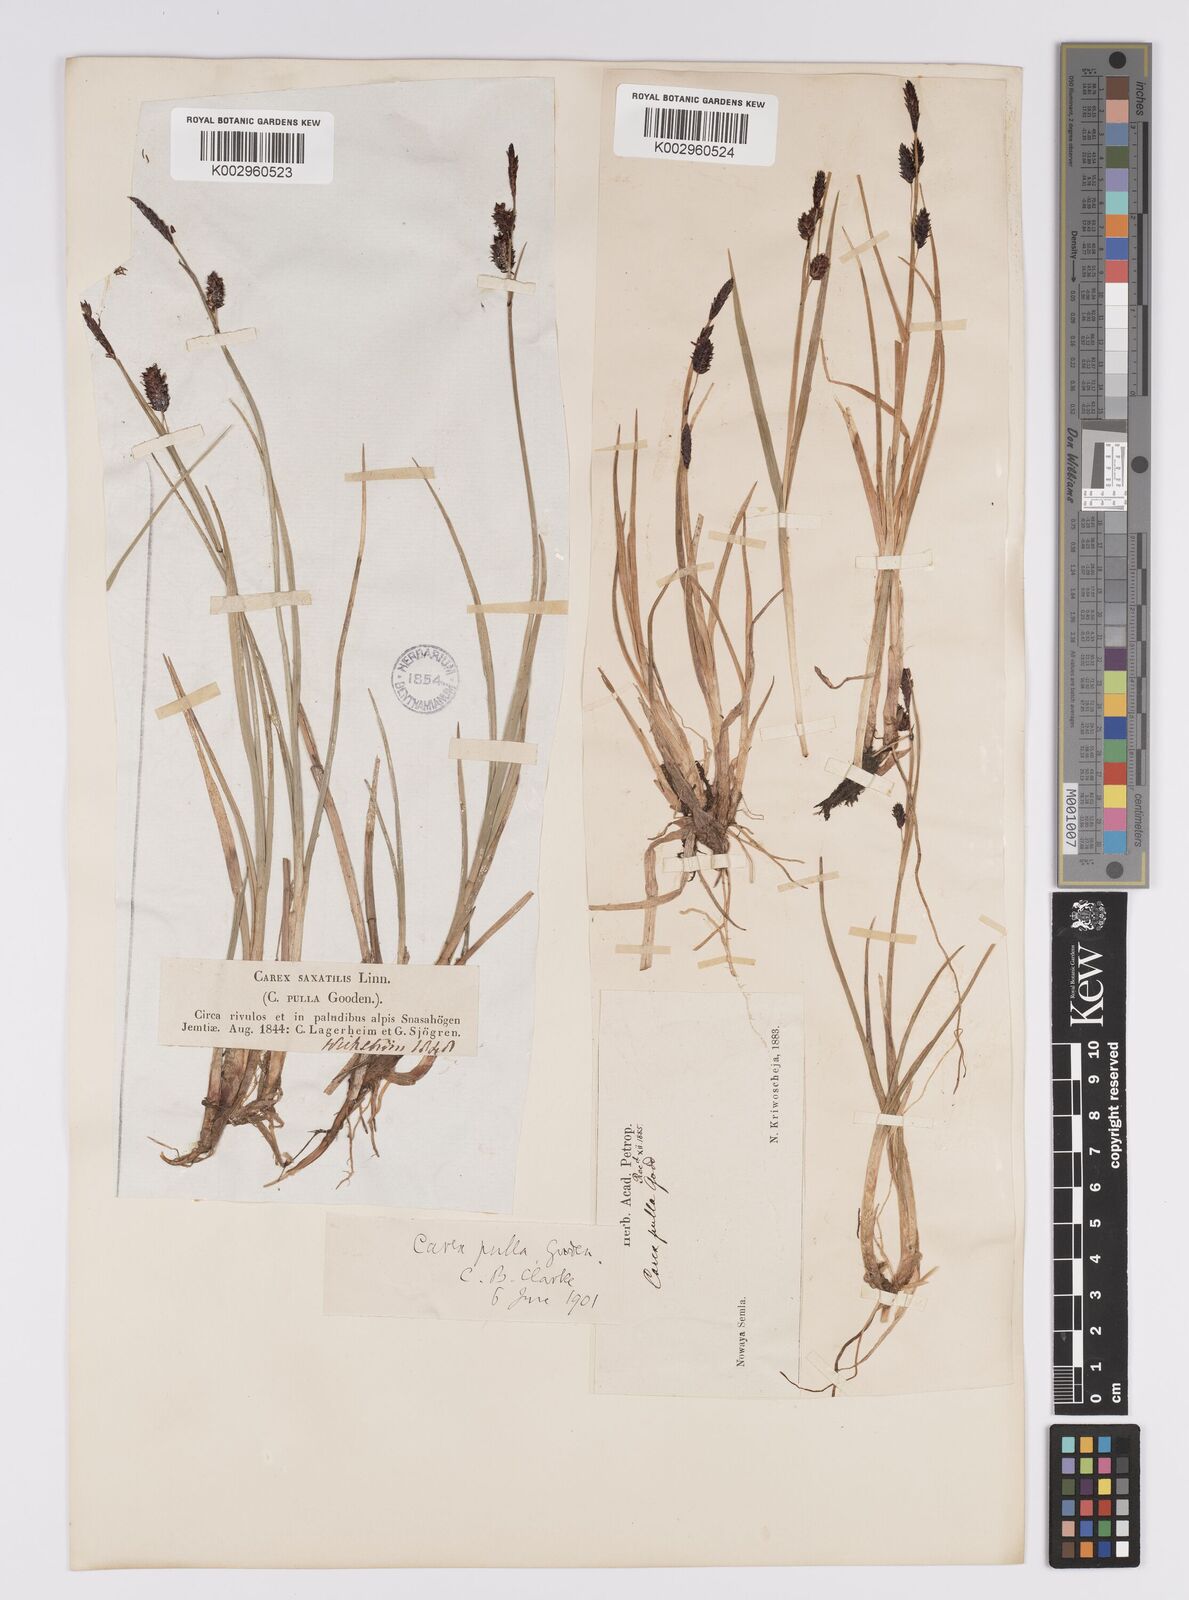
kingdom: Plantae
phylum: Tracheophyta
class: Liliopsida
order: Poales
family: Cyperaceae
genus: Carex
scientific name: Carex saxatilis
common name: Russet sedge
